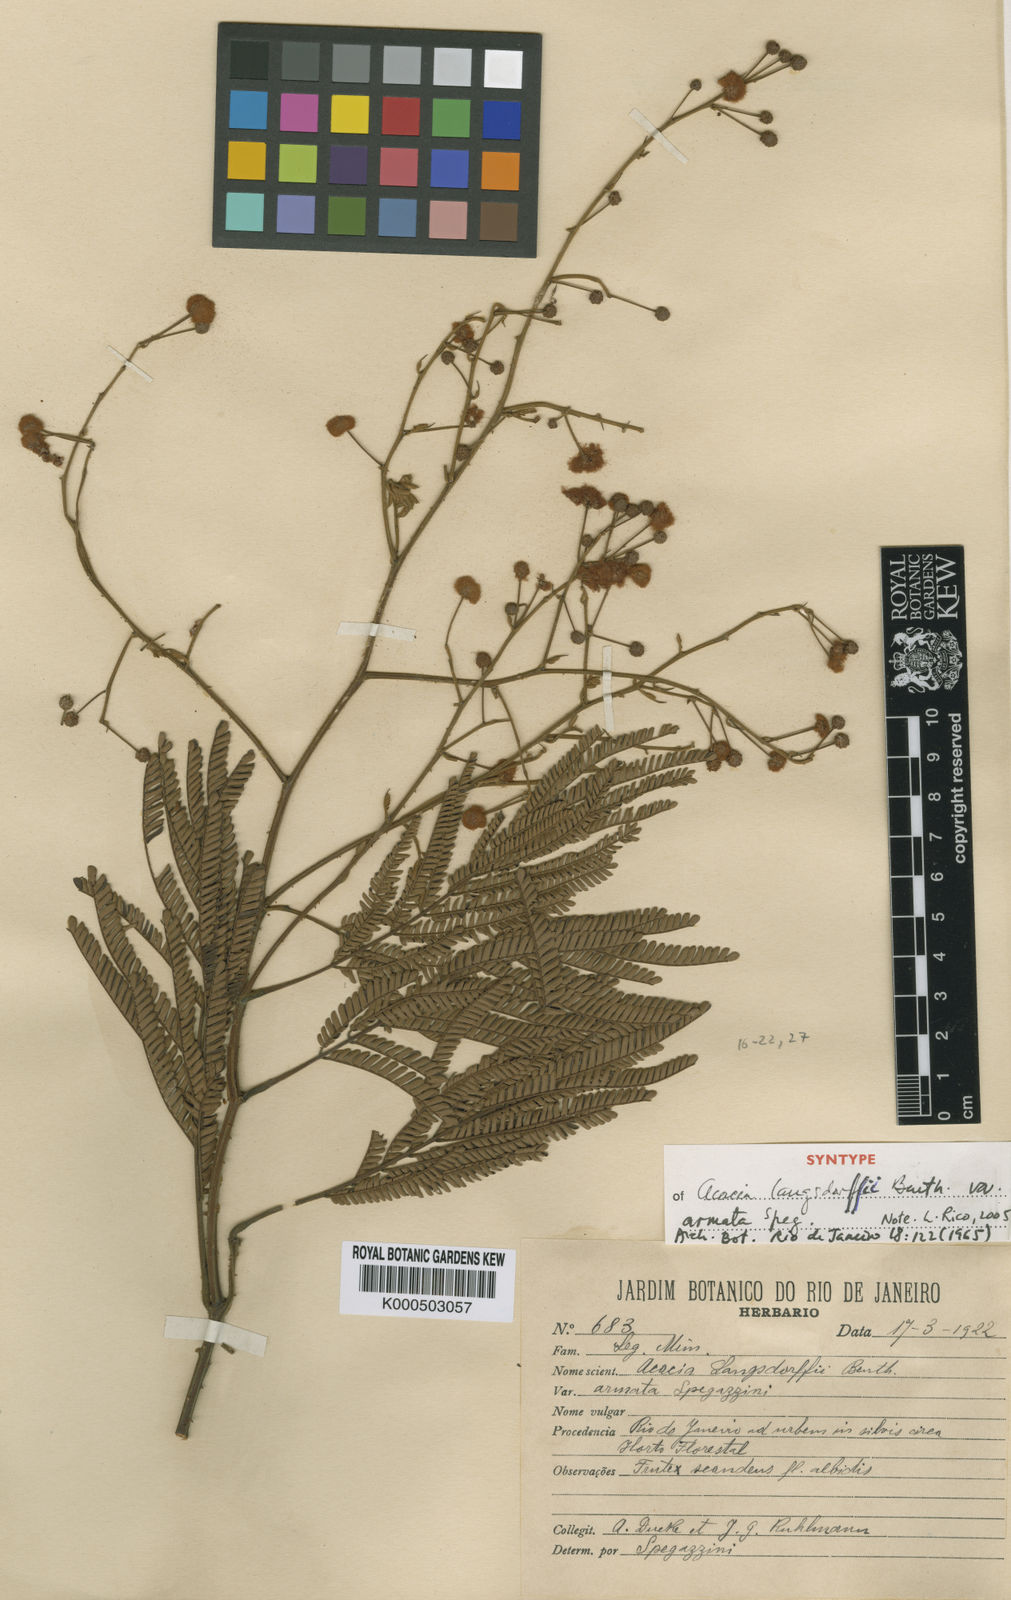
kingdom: Plantae
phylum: Tracheophyta
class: Magnoliopsida
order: Fabales
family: Fabaceae
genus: Acacia
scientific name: Acacia
